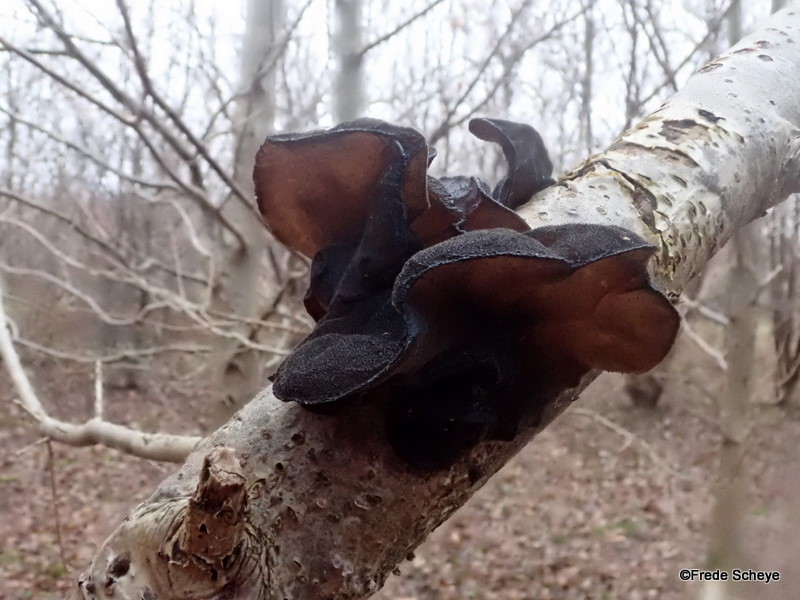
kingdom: Fungi
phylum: Basidiomycota
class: Agaricomycetes
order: Auriculariales
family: Auriculariaceae
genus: Exidia
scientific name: Exidia glandulosa
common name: ege-bævretop
